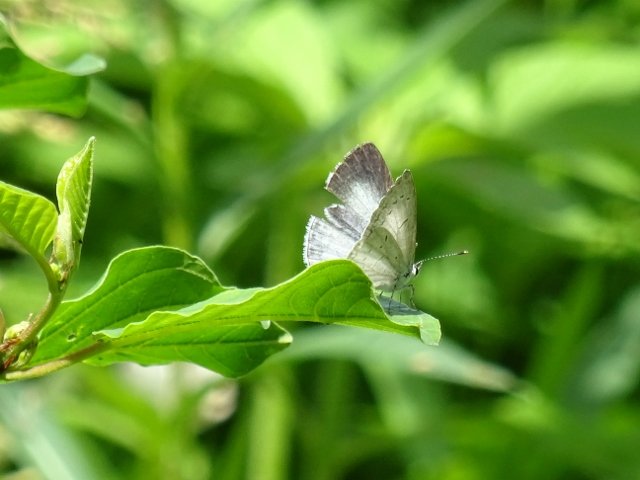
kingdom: Animalia
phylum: Arthropoda
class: Insecta
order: Lepidoptera
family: Lycaenidae
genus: Celastrina
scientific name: Celastrina
